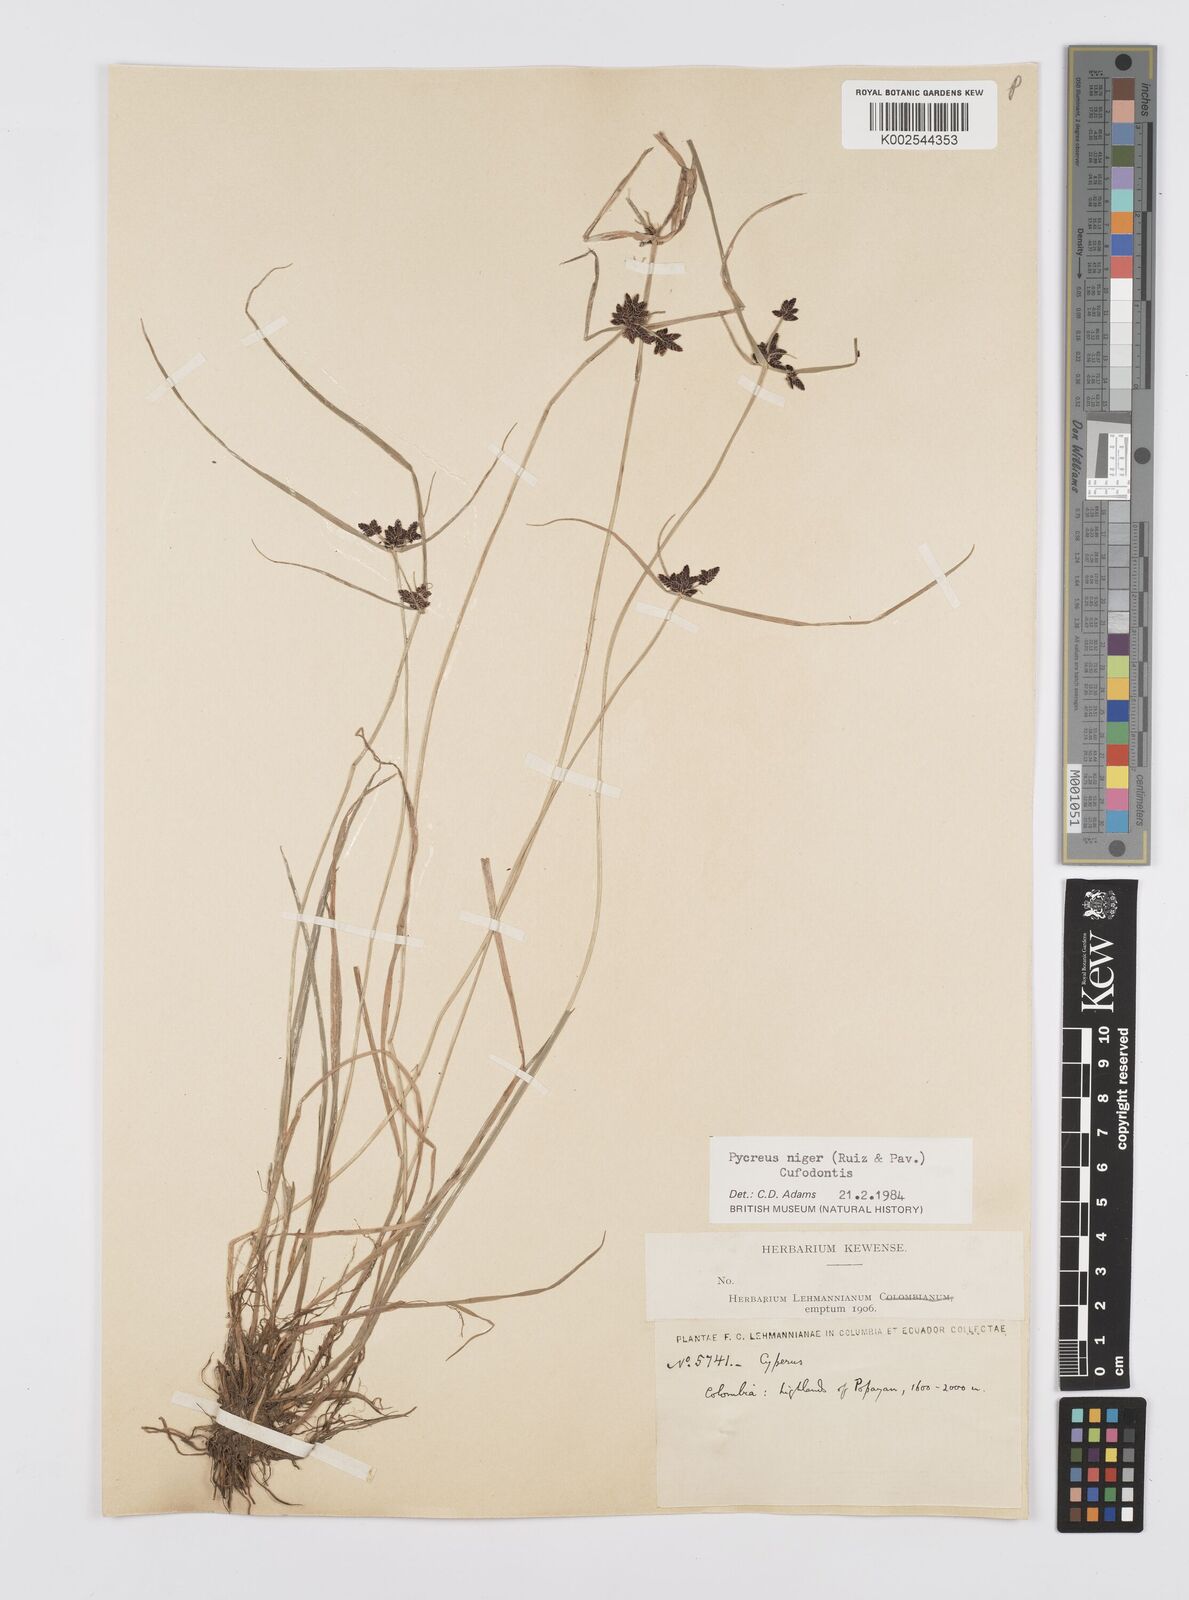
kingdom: Plantae
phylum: Tracheophyta
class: Liliopsida
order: Poales
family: Cyperaceae
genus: Cyperus
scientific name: Cyperus melanostachyus
